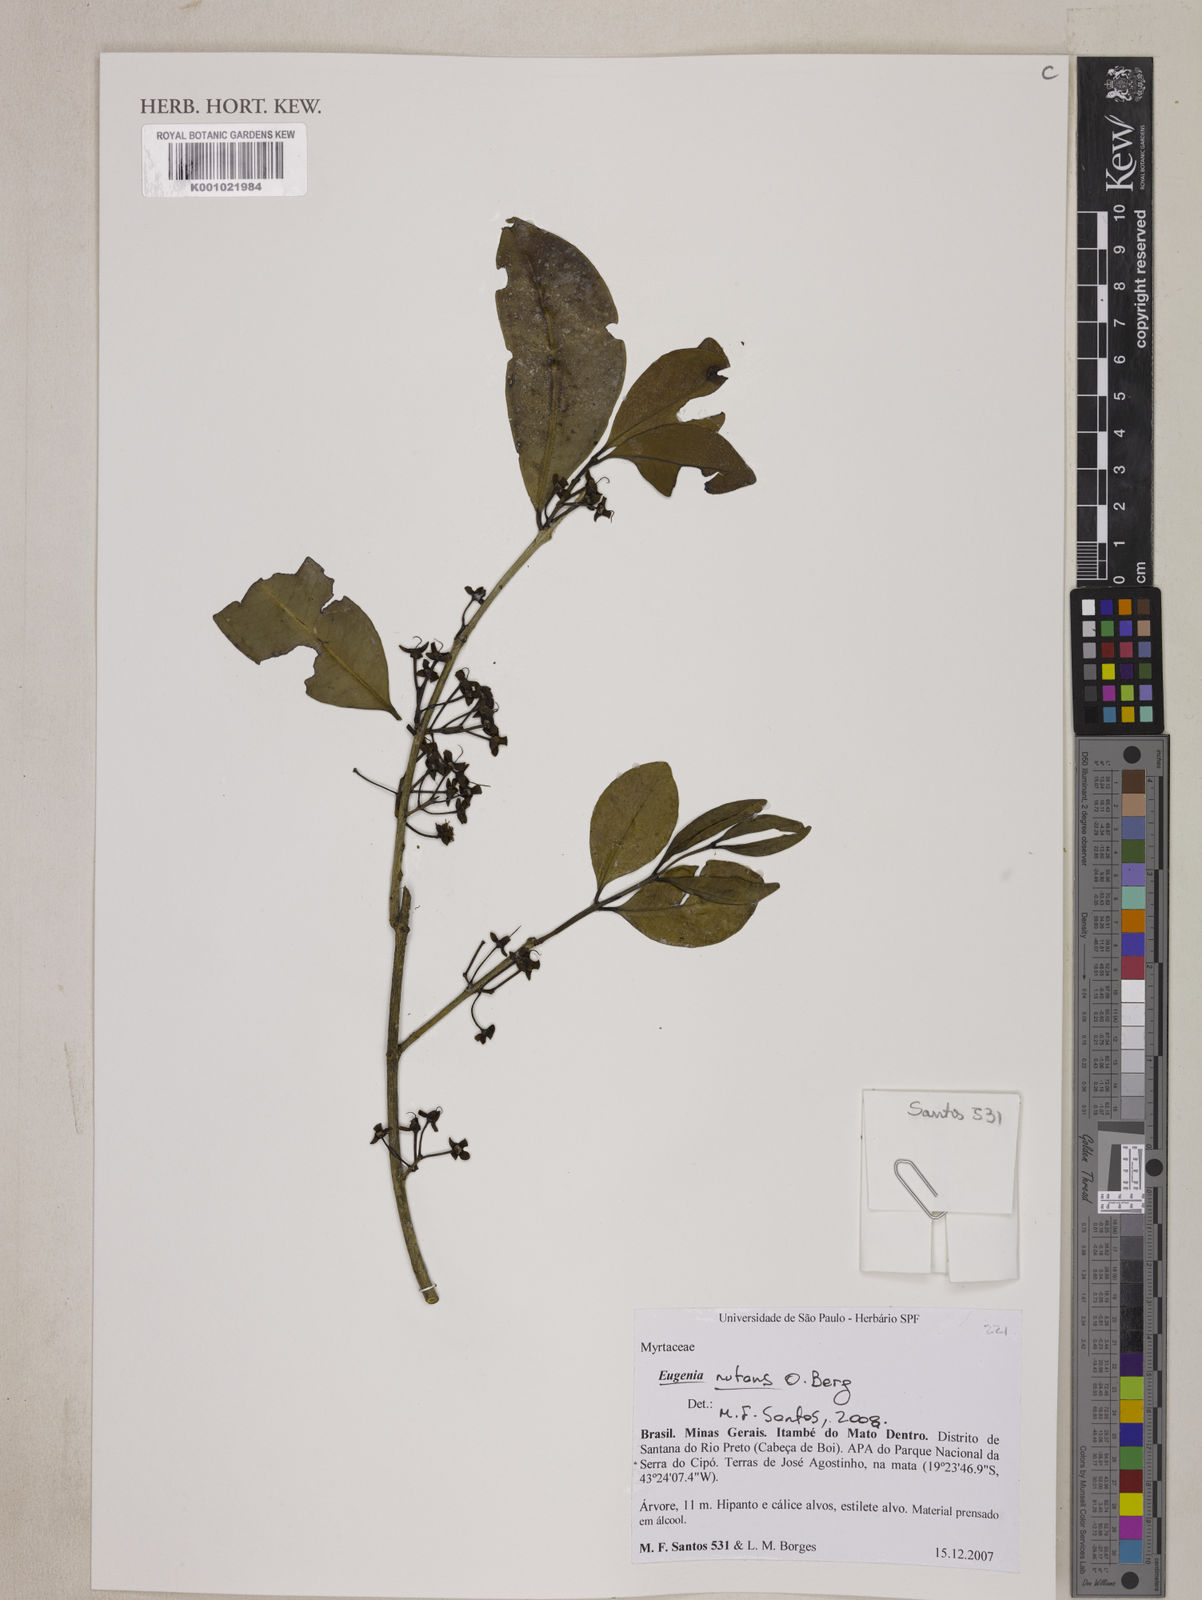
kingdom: Plantae
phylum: Tracheophyta
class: Magnoliopsida
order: Myrtales
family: Myrtaceae
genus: Eugenia
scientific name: Eugenia nutans
